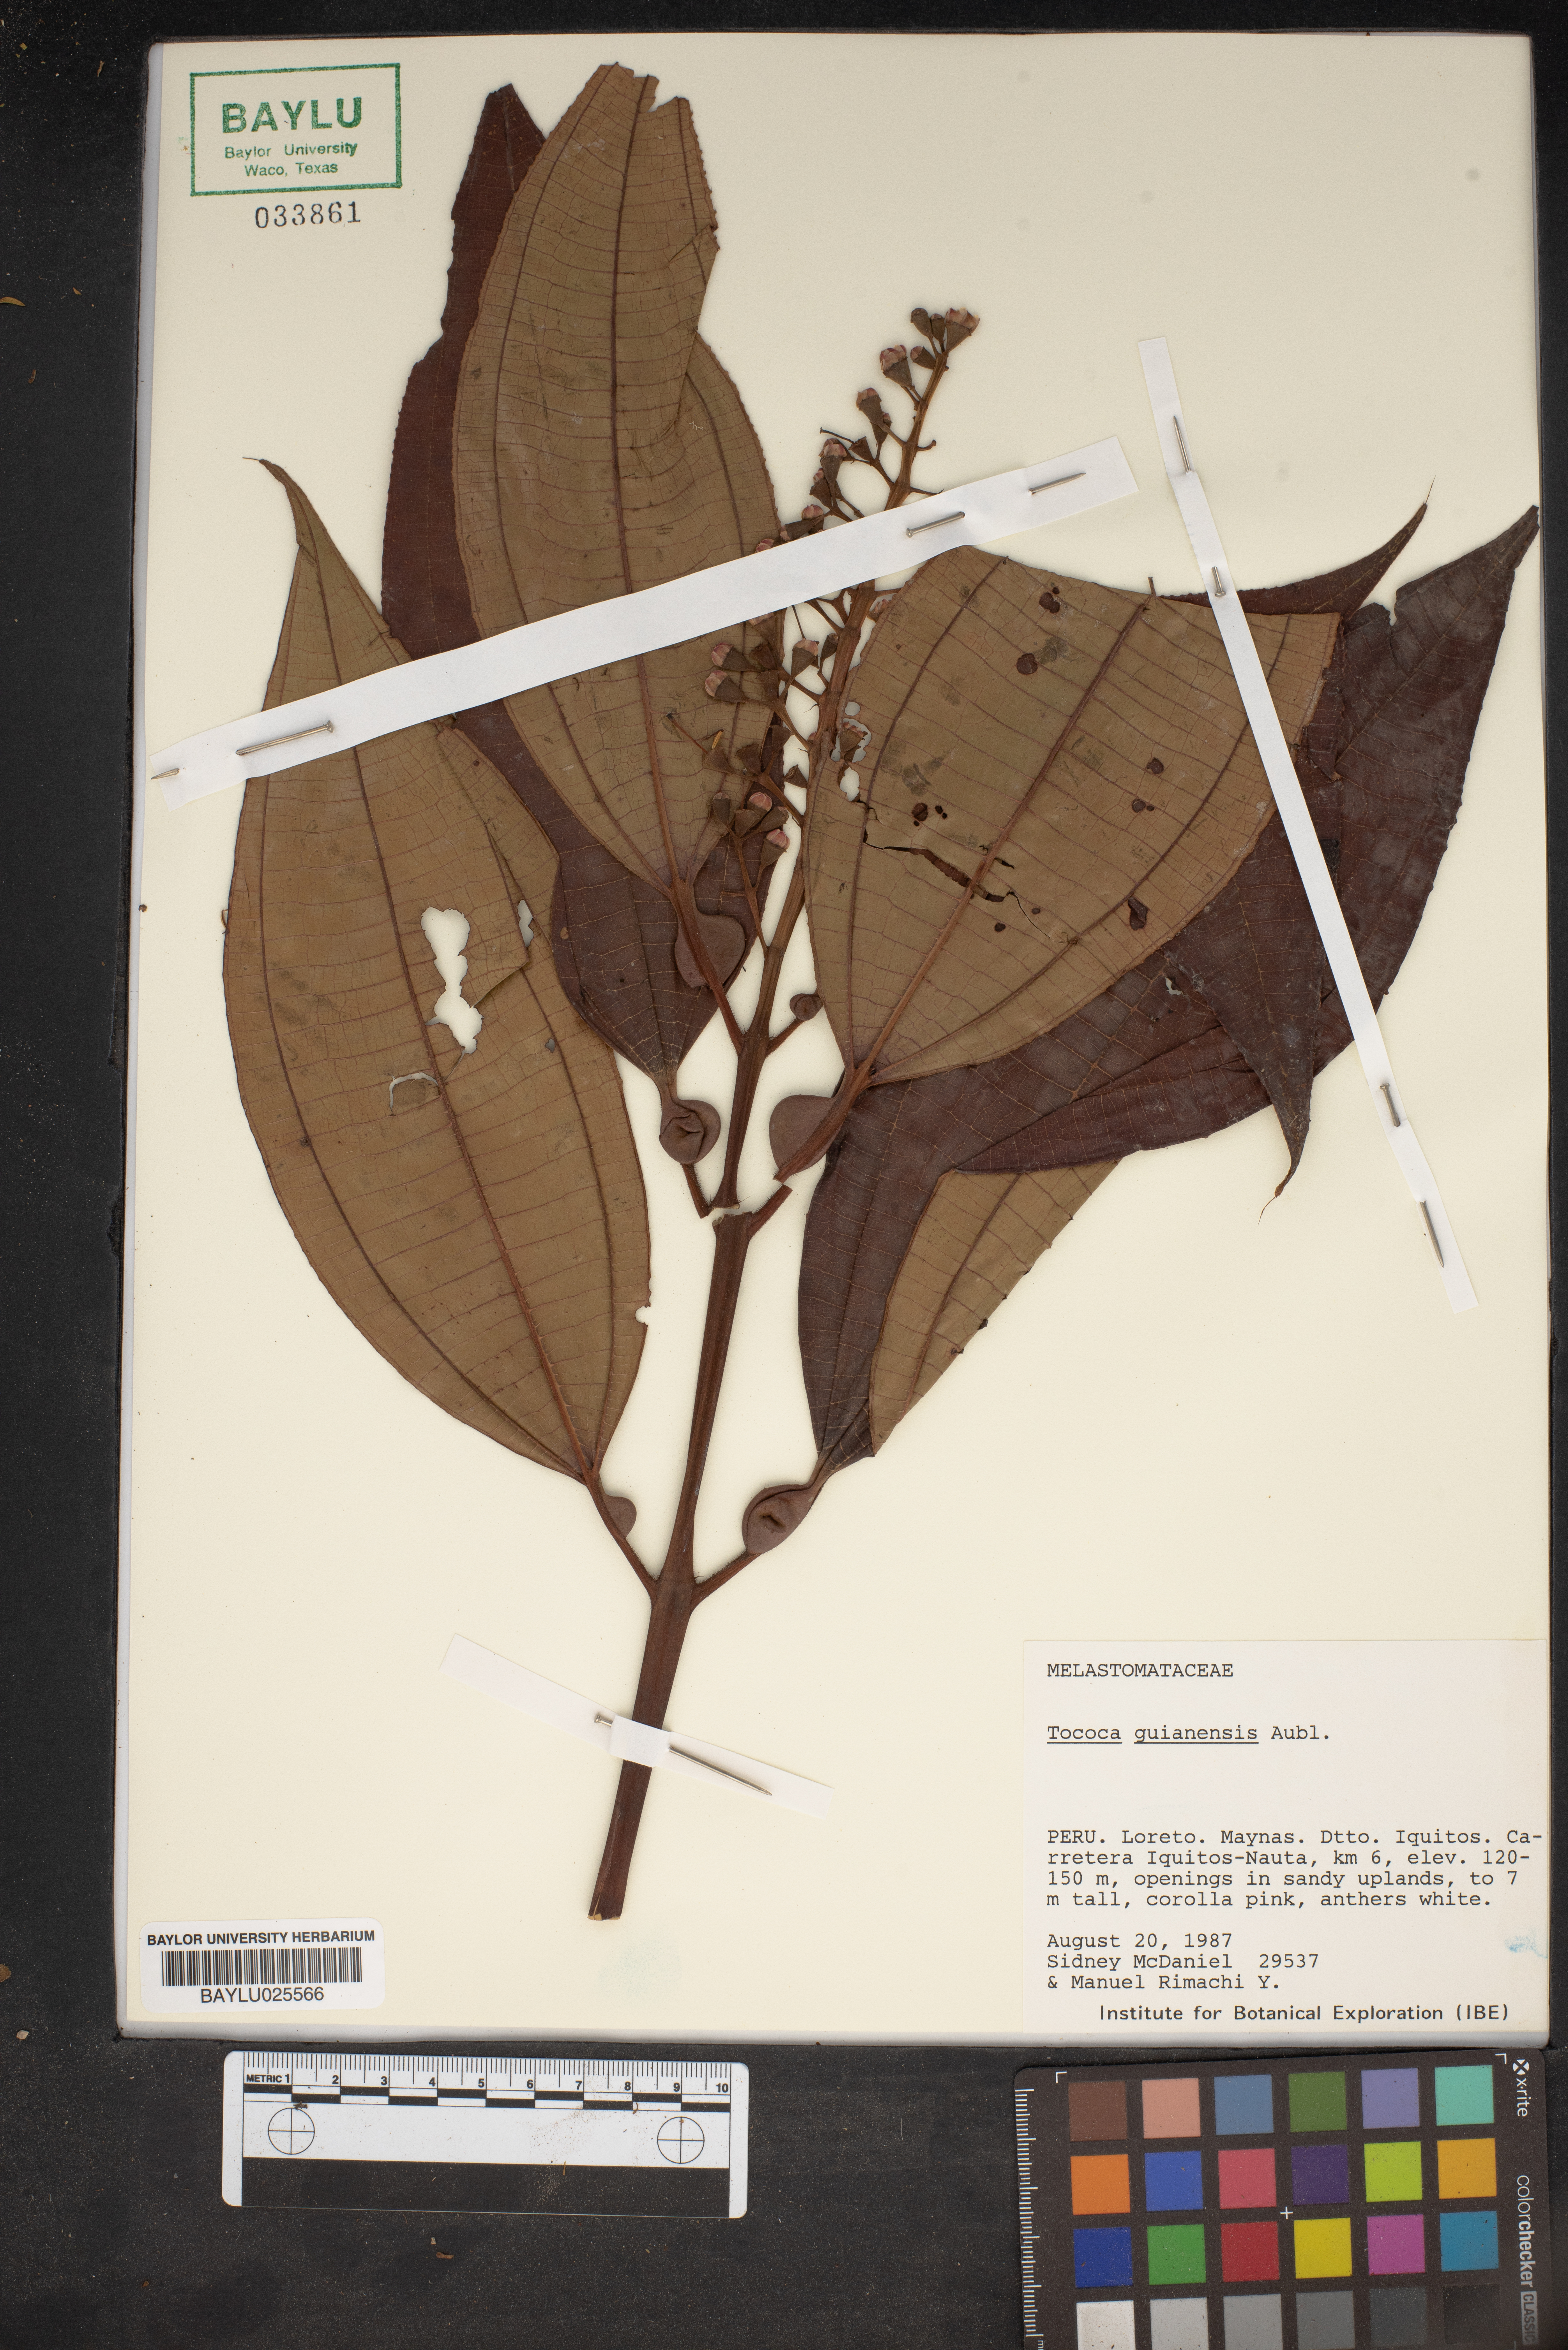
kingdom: Plantae
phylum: Tracheophyta
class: Magnoliopsida
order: Myrtales
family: Melastomataceae
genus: Miconia
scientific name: Miconia tococa
